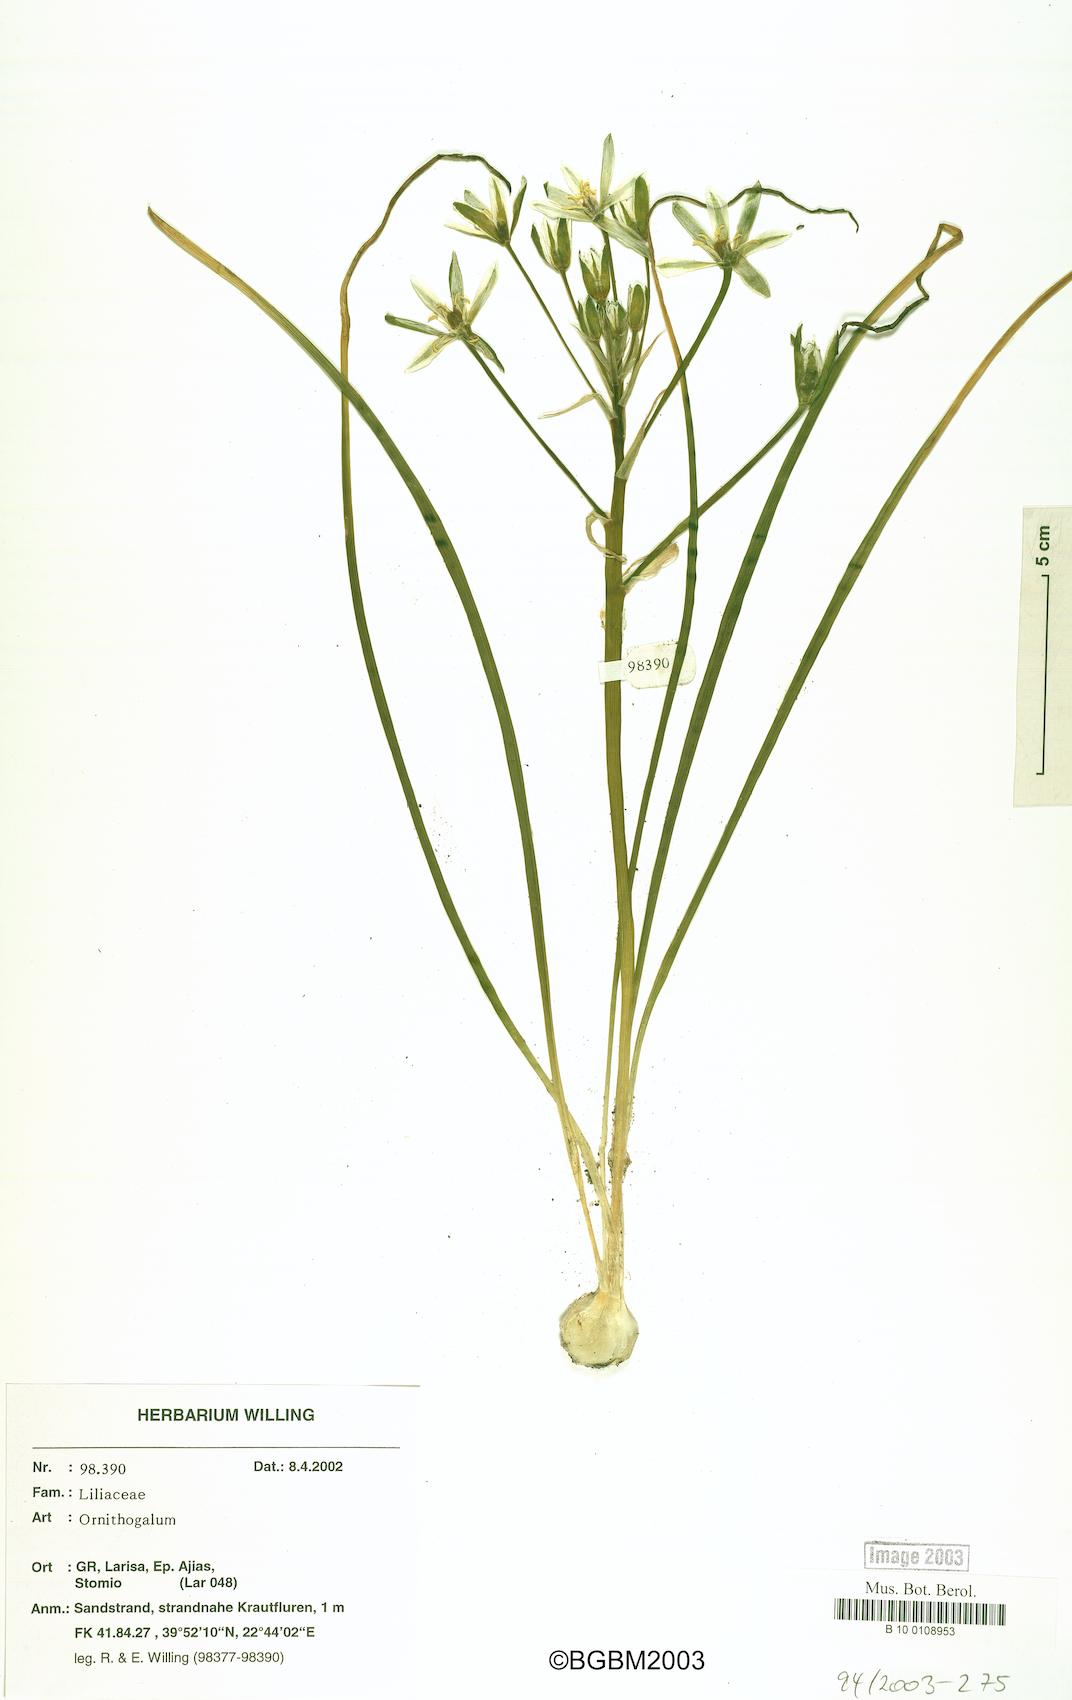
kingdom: Plantae
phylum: Tracheophyta
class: Liliopsida
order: Asparagales
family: Asparagaceae
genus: Ornithogalum
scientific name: Ornithogalum
